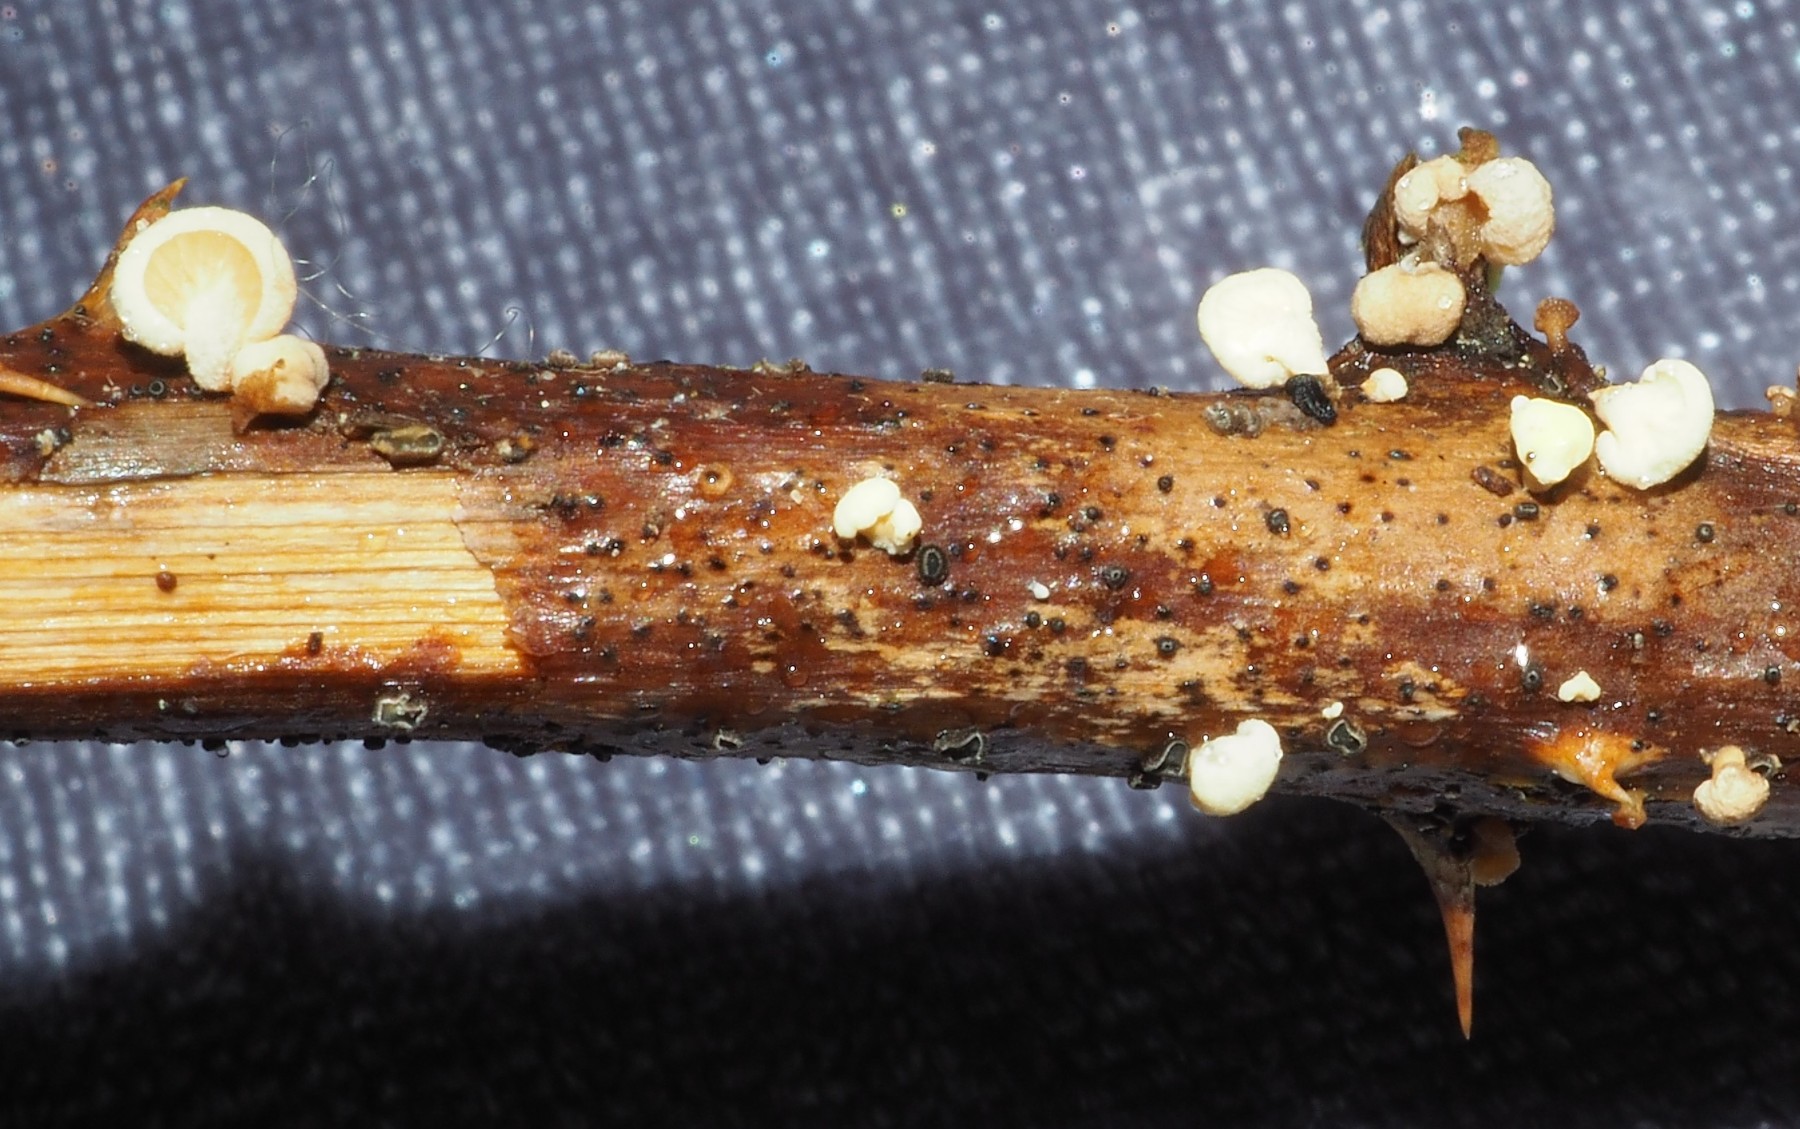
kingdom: Fungi
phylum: Basidiomycota
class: Agaricomycetes
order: Agaricales
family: Crepidotaceae
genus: Crepidotus
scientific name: Crepidotus luteolus
